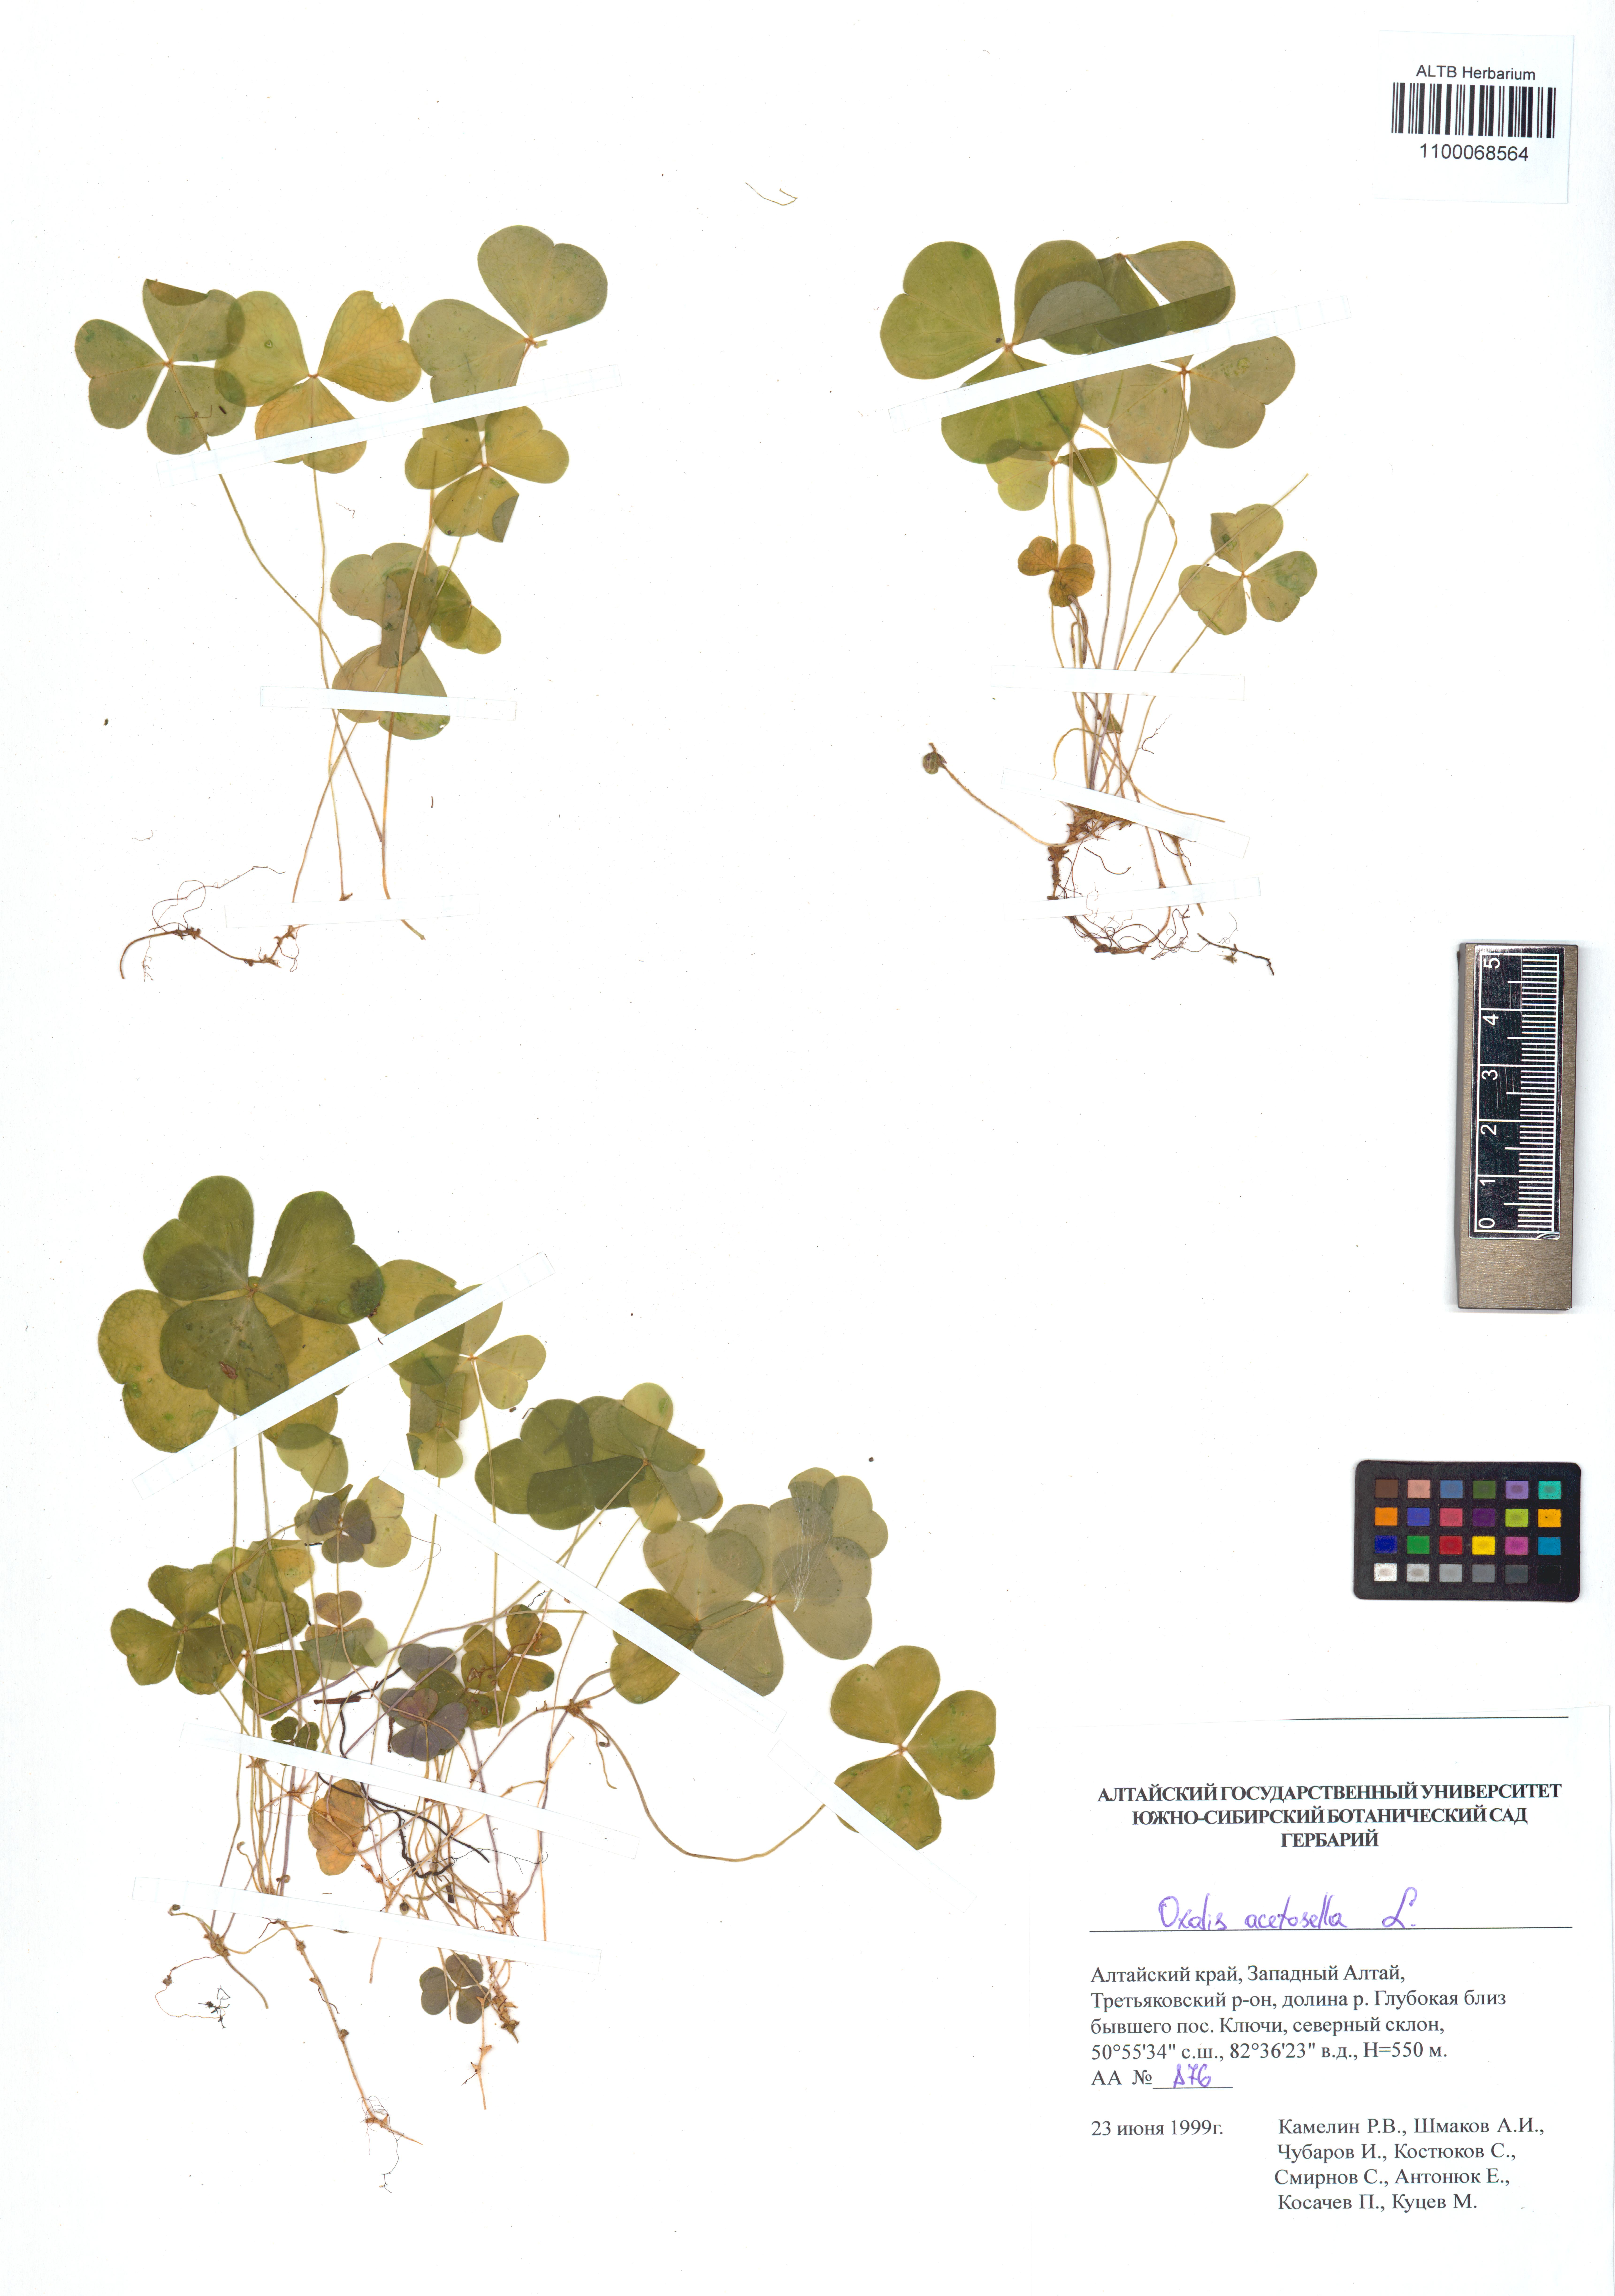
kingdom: Plantae
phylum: Tracheophyta
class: Magnoliopsida
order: Oxalidales
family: Oxalidaceae
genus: Oxalis
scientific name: Oxalis acetosella
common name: Wood-sorrel
